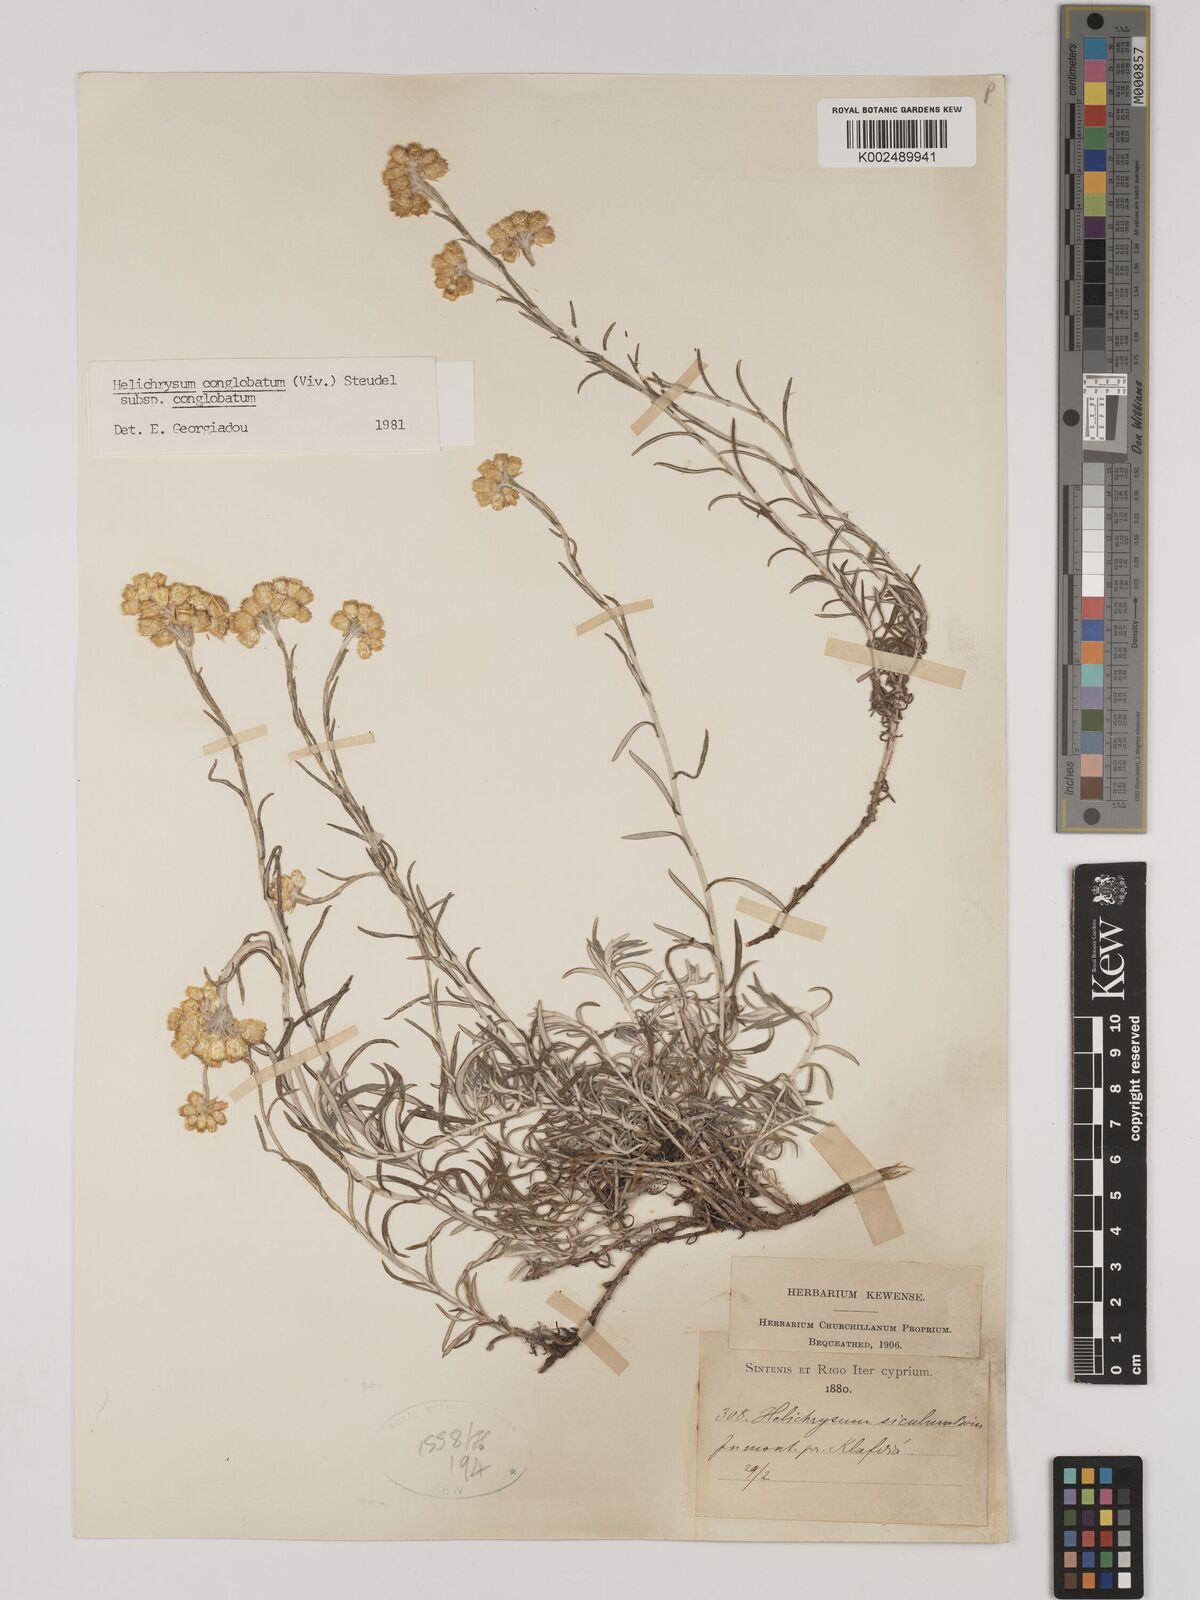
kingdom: Plantae
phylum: Tracheophyta
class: Magnoliopsida
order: Asterales
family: Asteraceae
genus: Helichrysum
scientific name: Helichrysum stoechas
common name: Goldilocks
